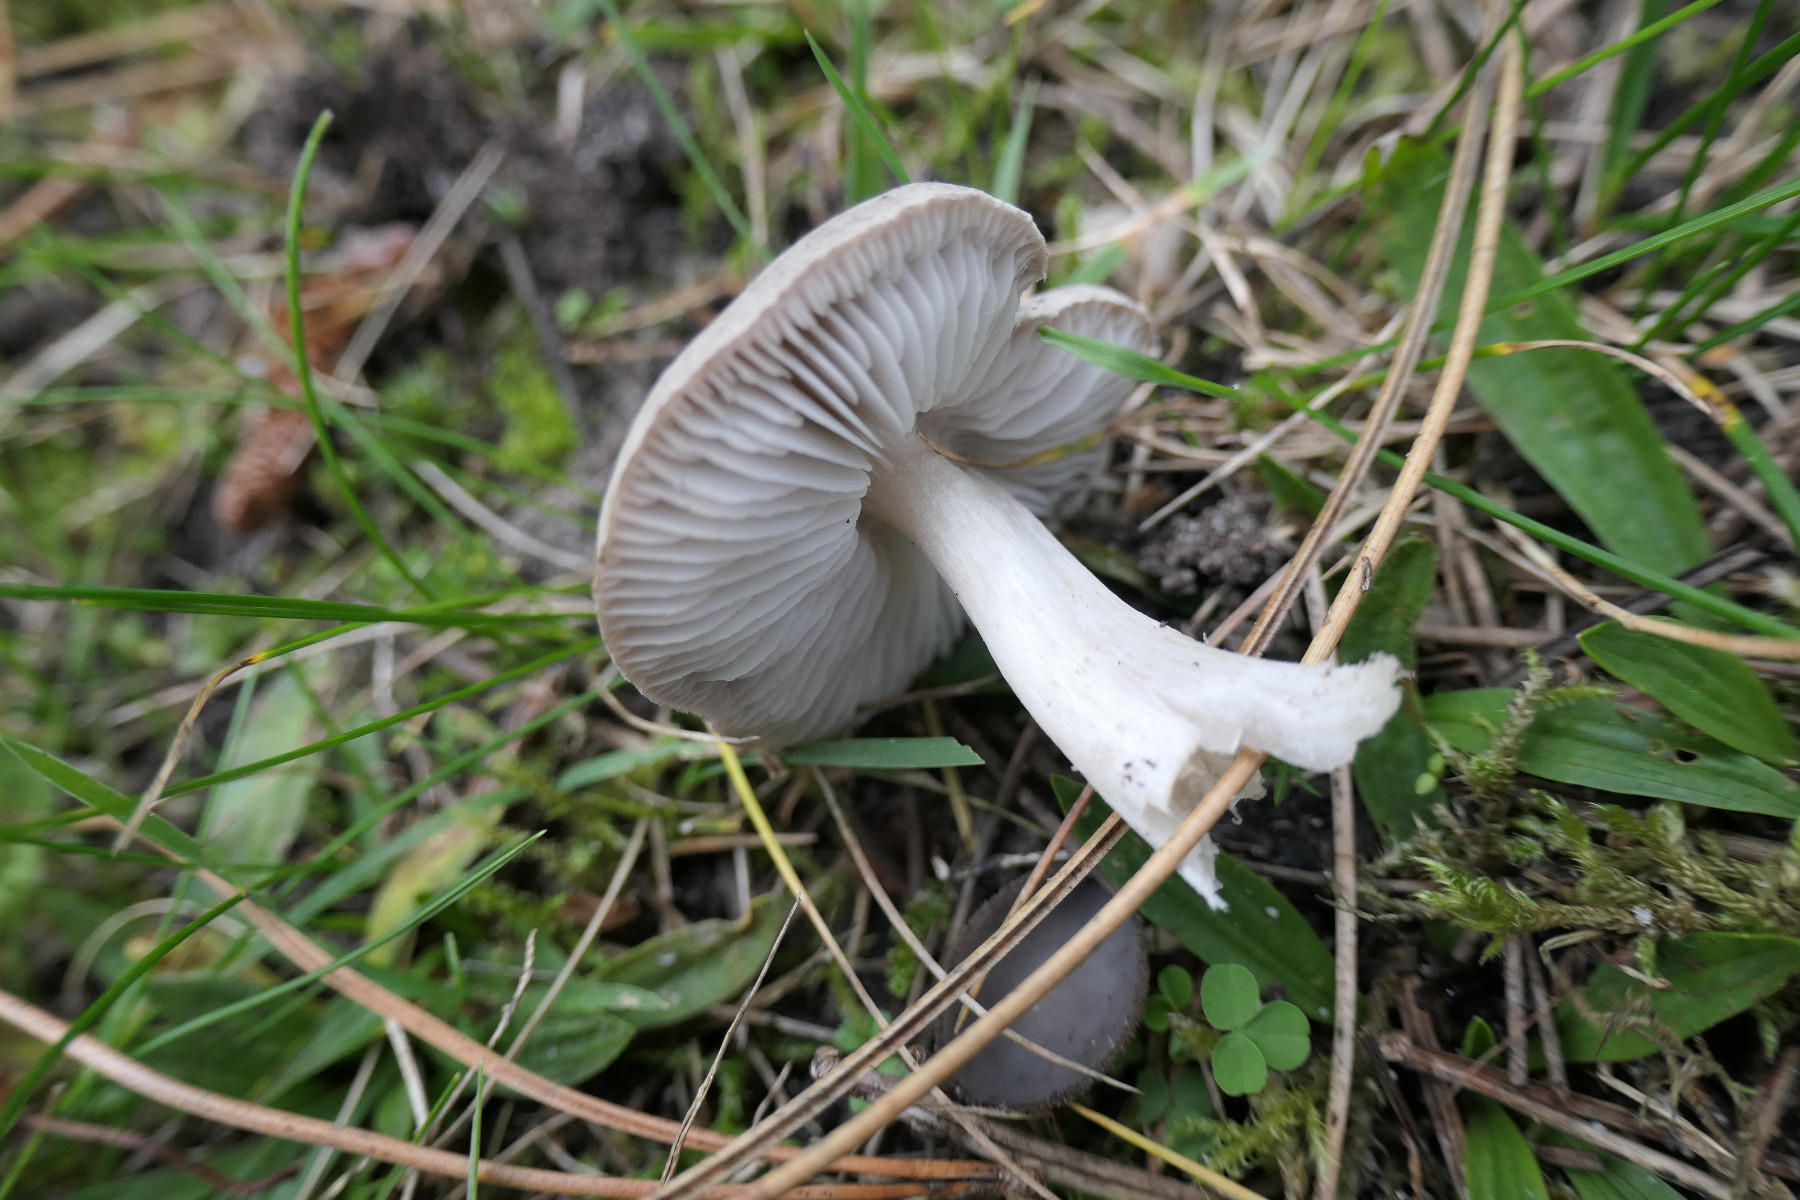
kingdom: Fungi
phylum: Basidiomycota
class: Agaricomycetes
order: Agaricales
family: Tricholomataceae
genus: Tricholoma
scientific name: Tricholoma terreum
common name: jordfarvet ridderhat
